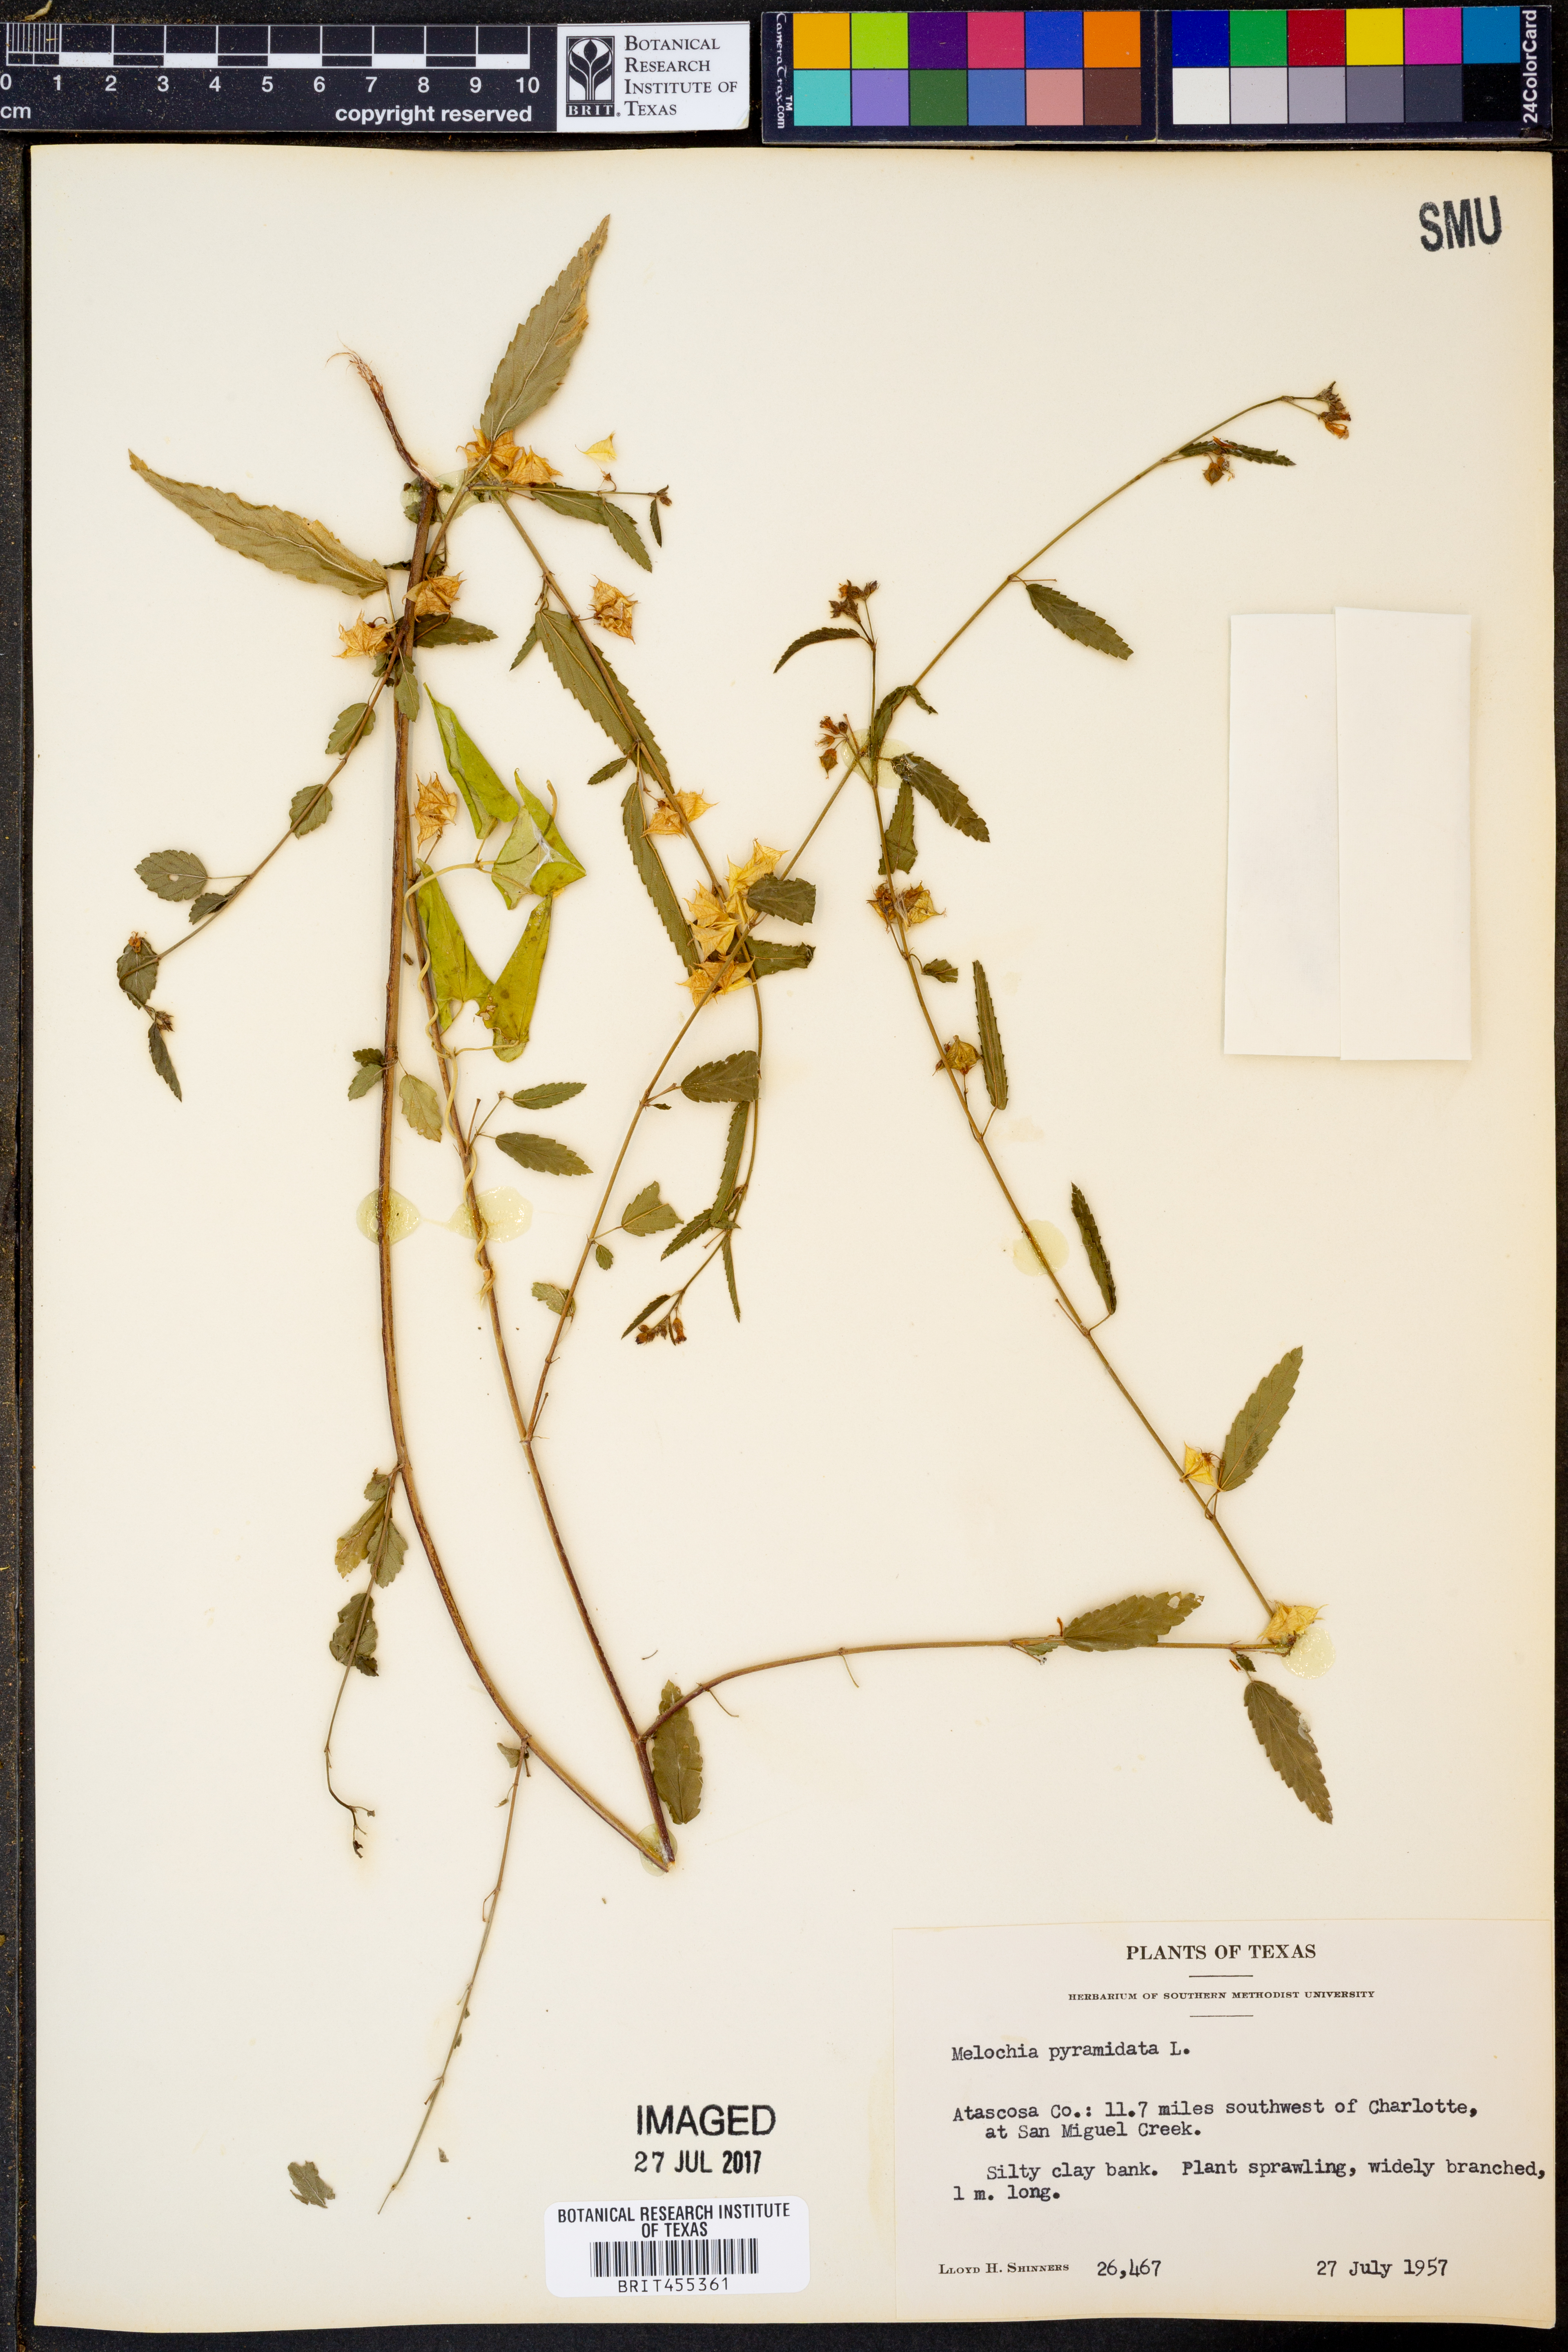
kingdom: Plantae
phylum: Tracheophyta
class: Magnoliopsida
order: Malvales
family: Malvaceae
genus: Melochia
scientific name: Melochia pyramidata
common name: Pyramidflower
